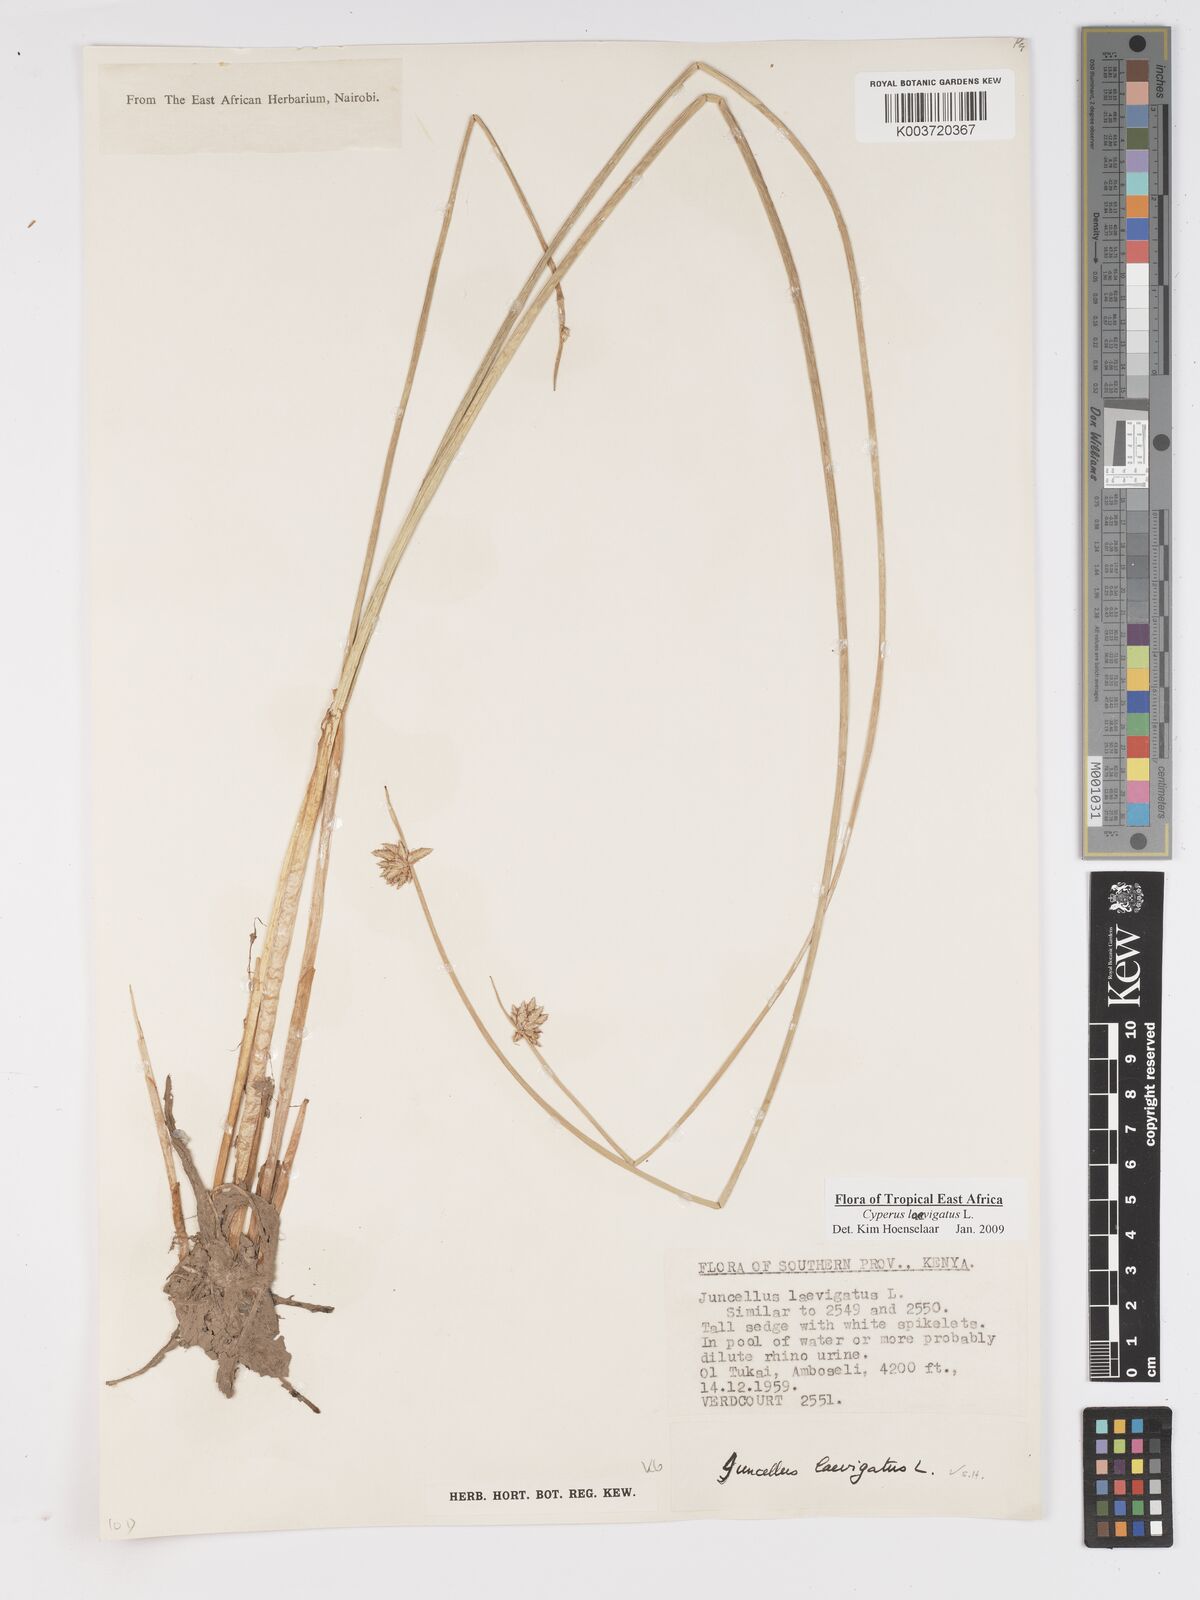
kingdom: Plantae
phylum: Tracheophyta
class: Liliopsida
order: Poales
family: Cyperaceae
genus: Cyperus
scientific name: Cyperus laevigatus
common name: Smooth flat sedge
